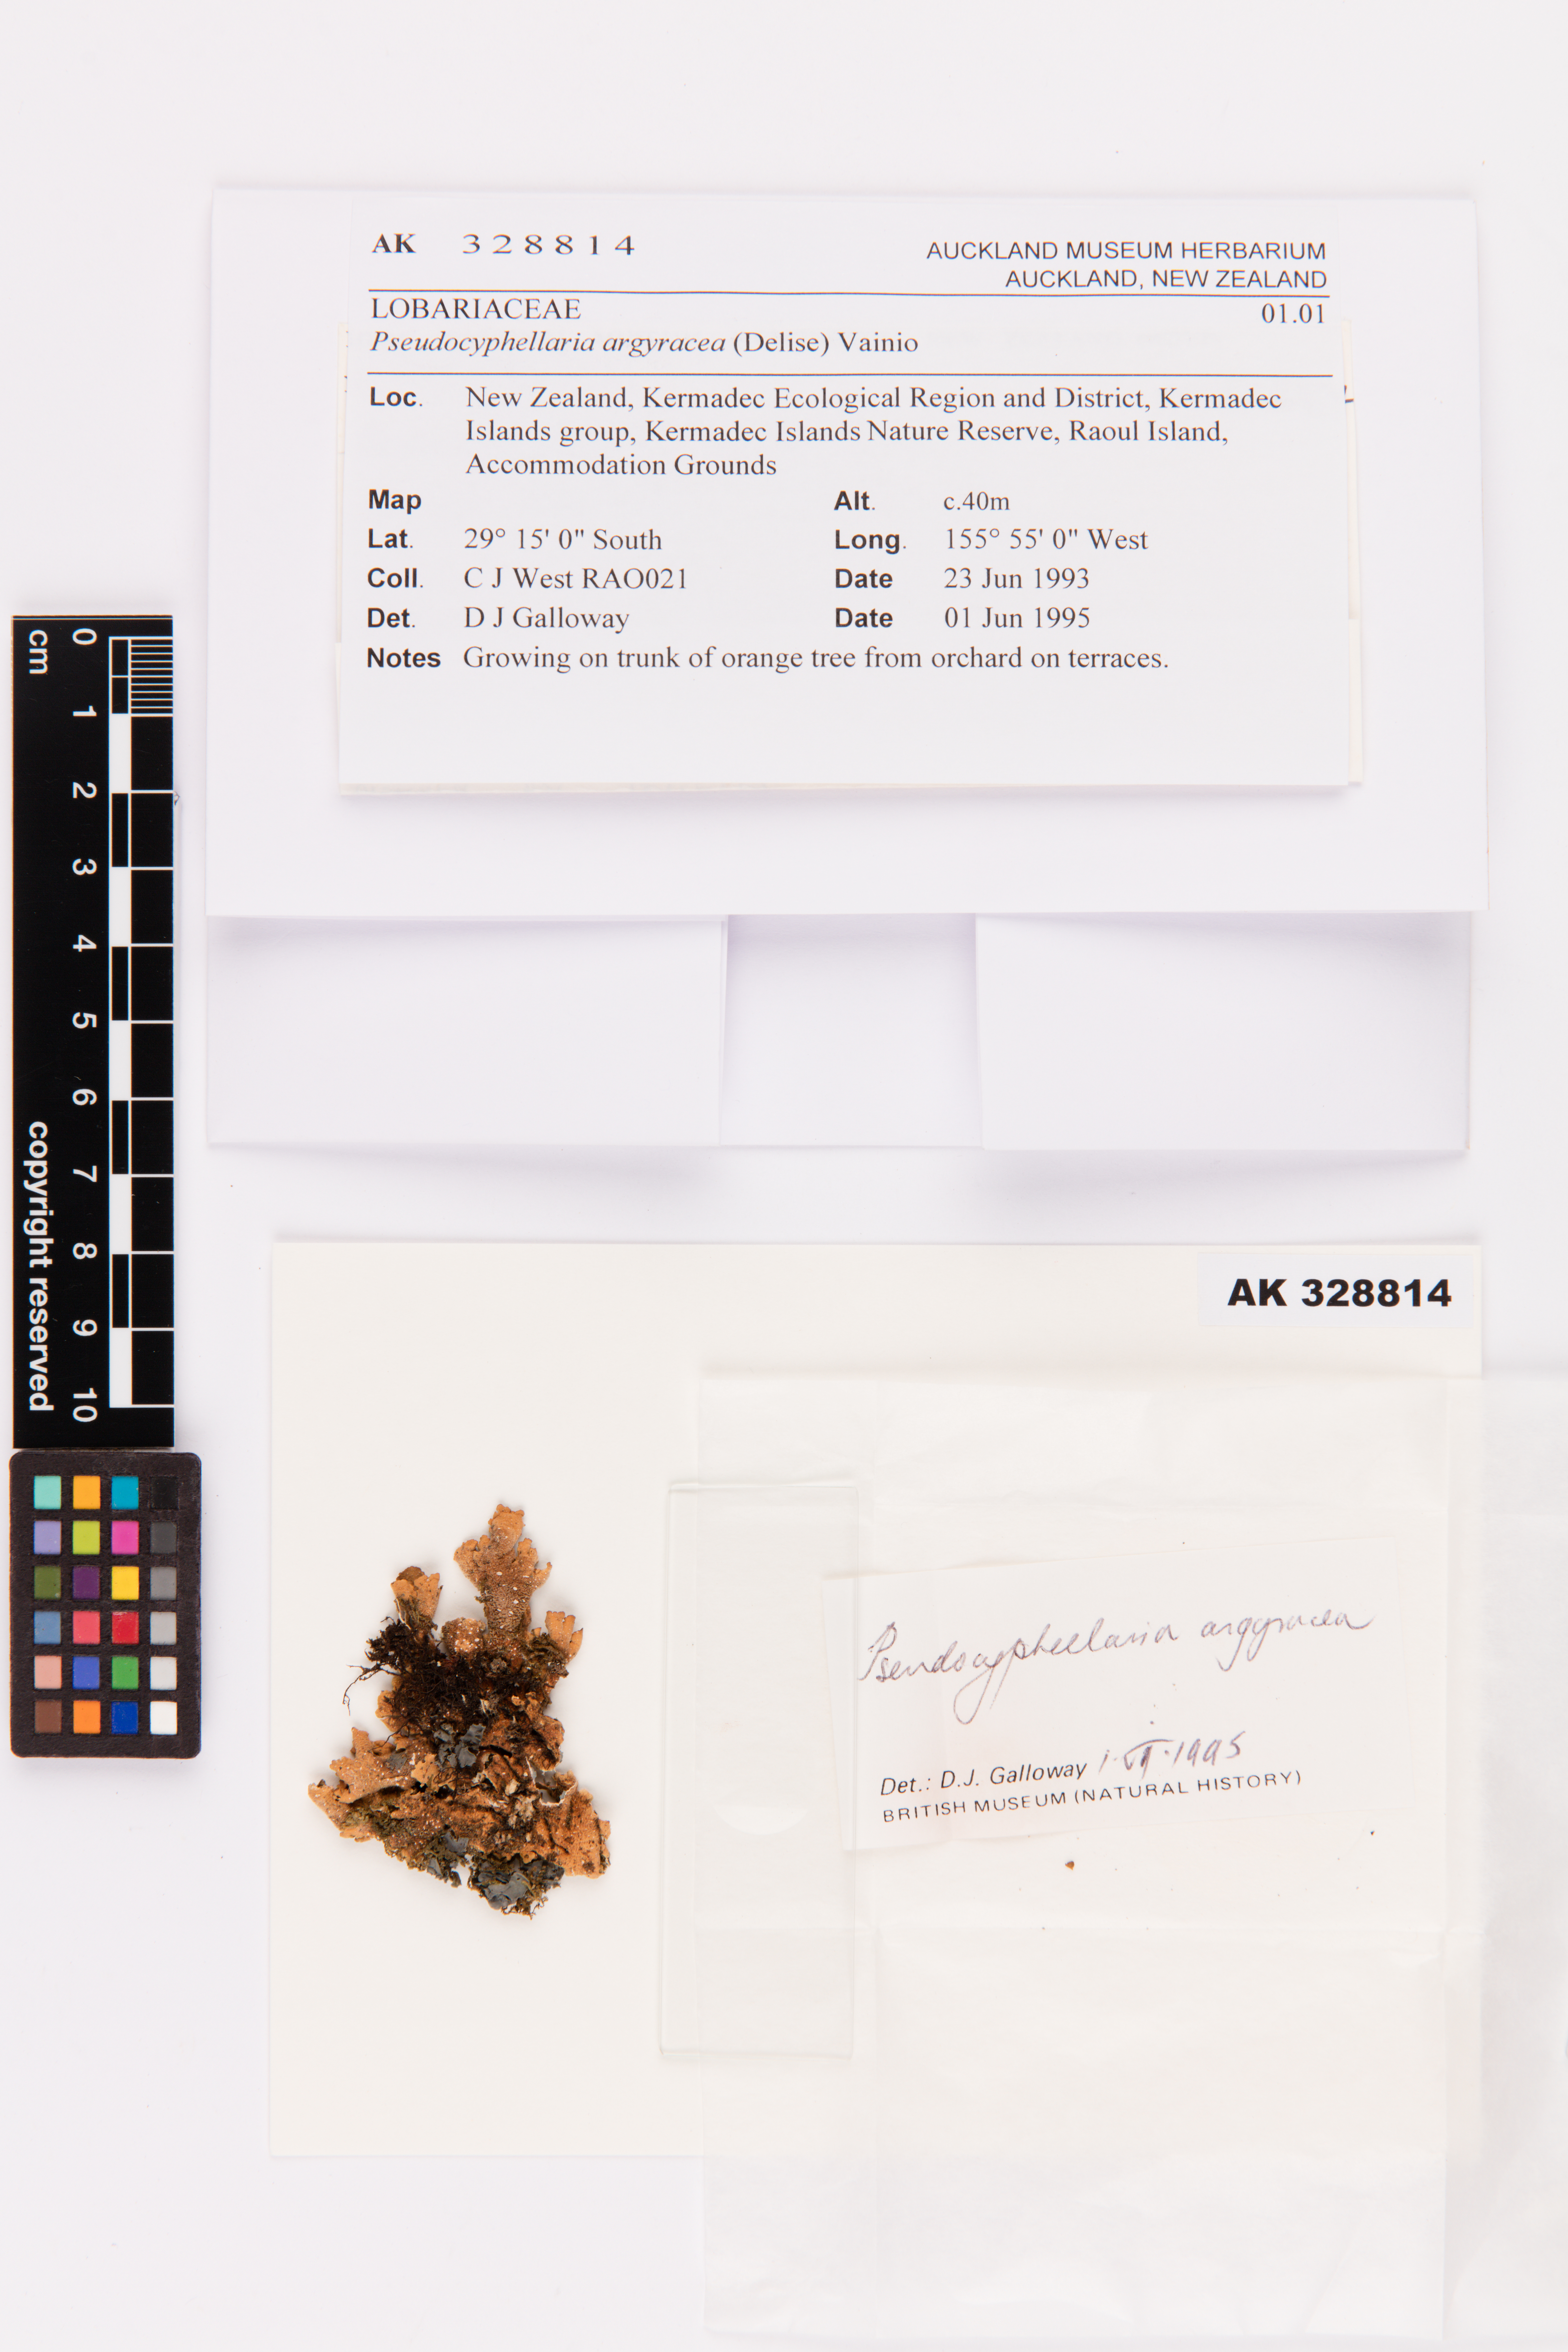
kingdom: Fungi
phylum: Ascomycota
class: Lecanoromycetes
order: Peltigerales
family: Lobariaceae
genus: Pseudocyphellaria
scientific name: Pseudocyphellaria argyracea
